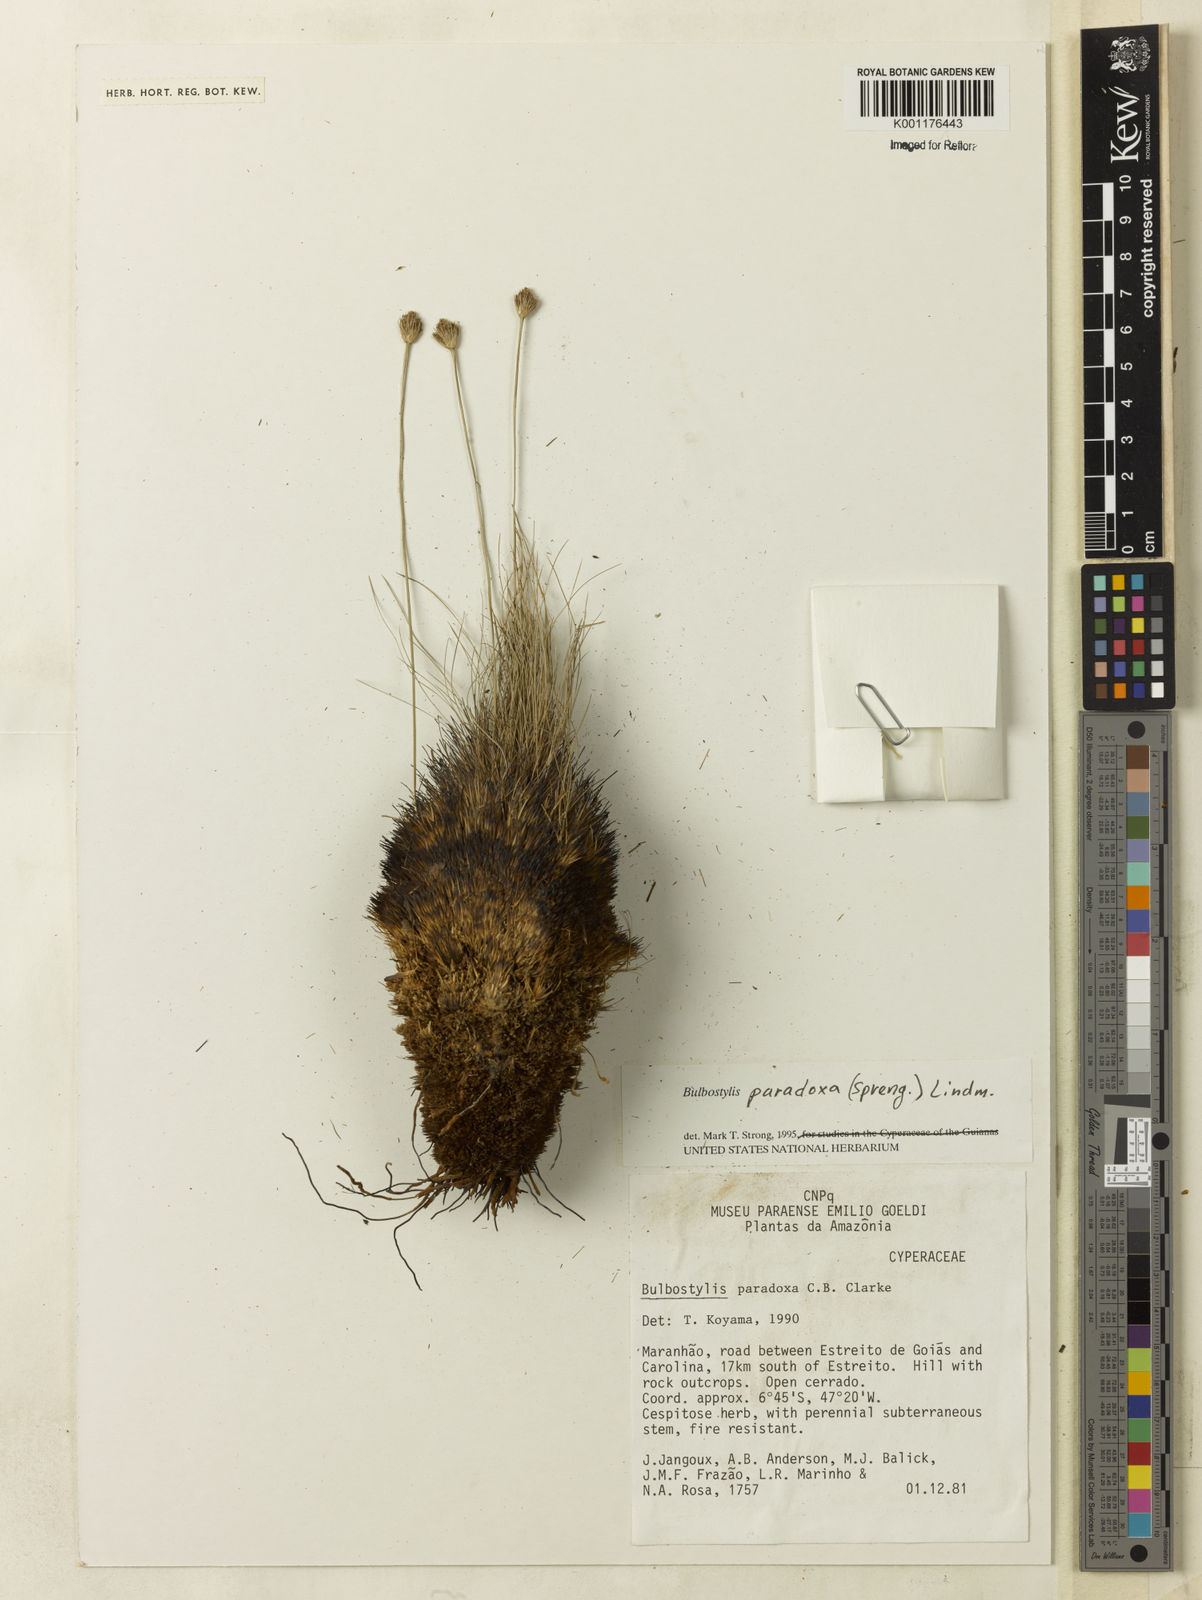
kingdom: Plantae
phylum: Tracheophyta
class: Liliopsida
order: Poales
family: Cyperaceae
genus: Bulbostylis
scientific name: Bulbostylis paradoxa
